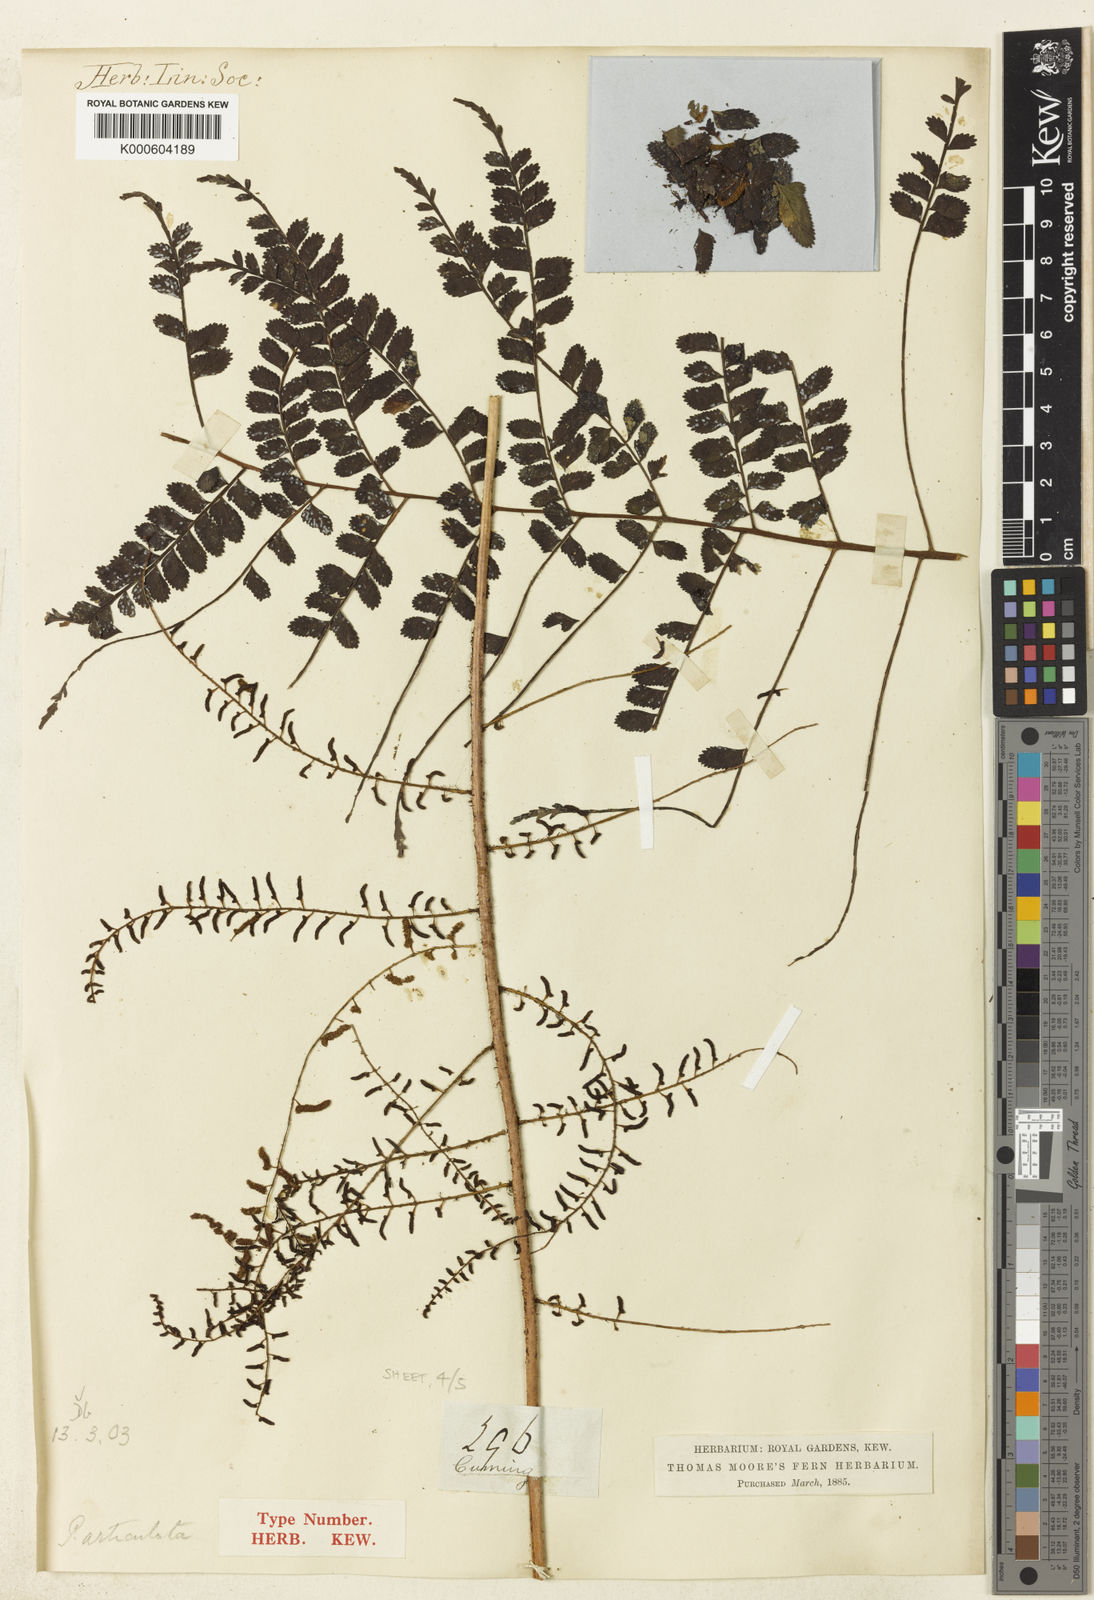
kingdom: Plantae
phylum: Tracheophyta
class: Polypodiopsida
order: Polypodiales
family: Dryopteridaceae
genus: Arthrobotrya
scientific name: Arthrobotrya articulata
